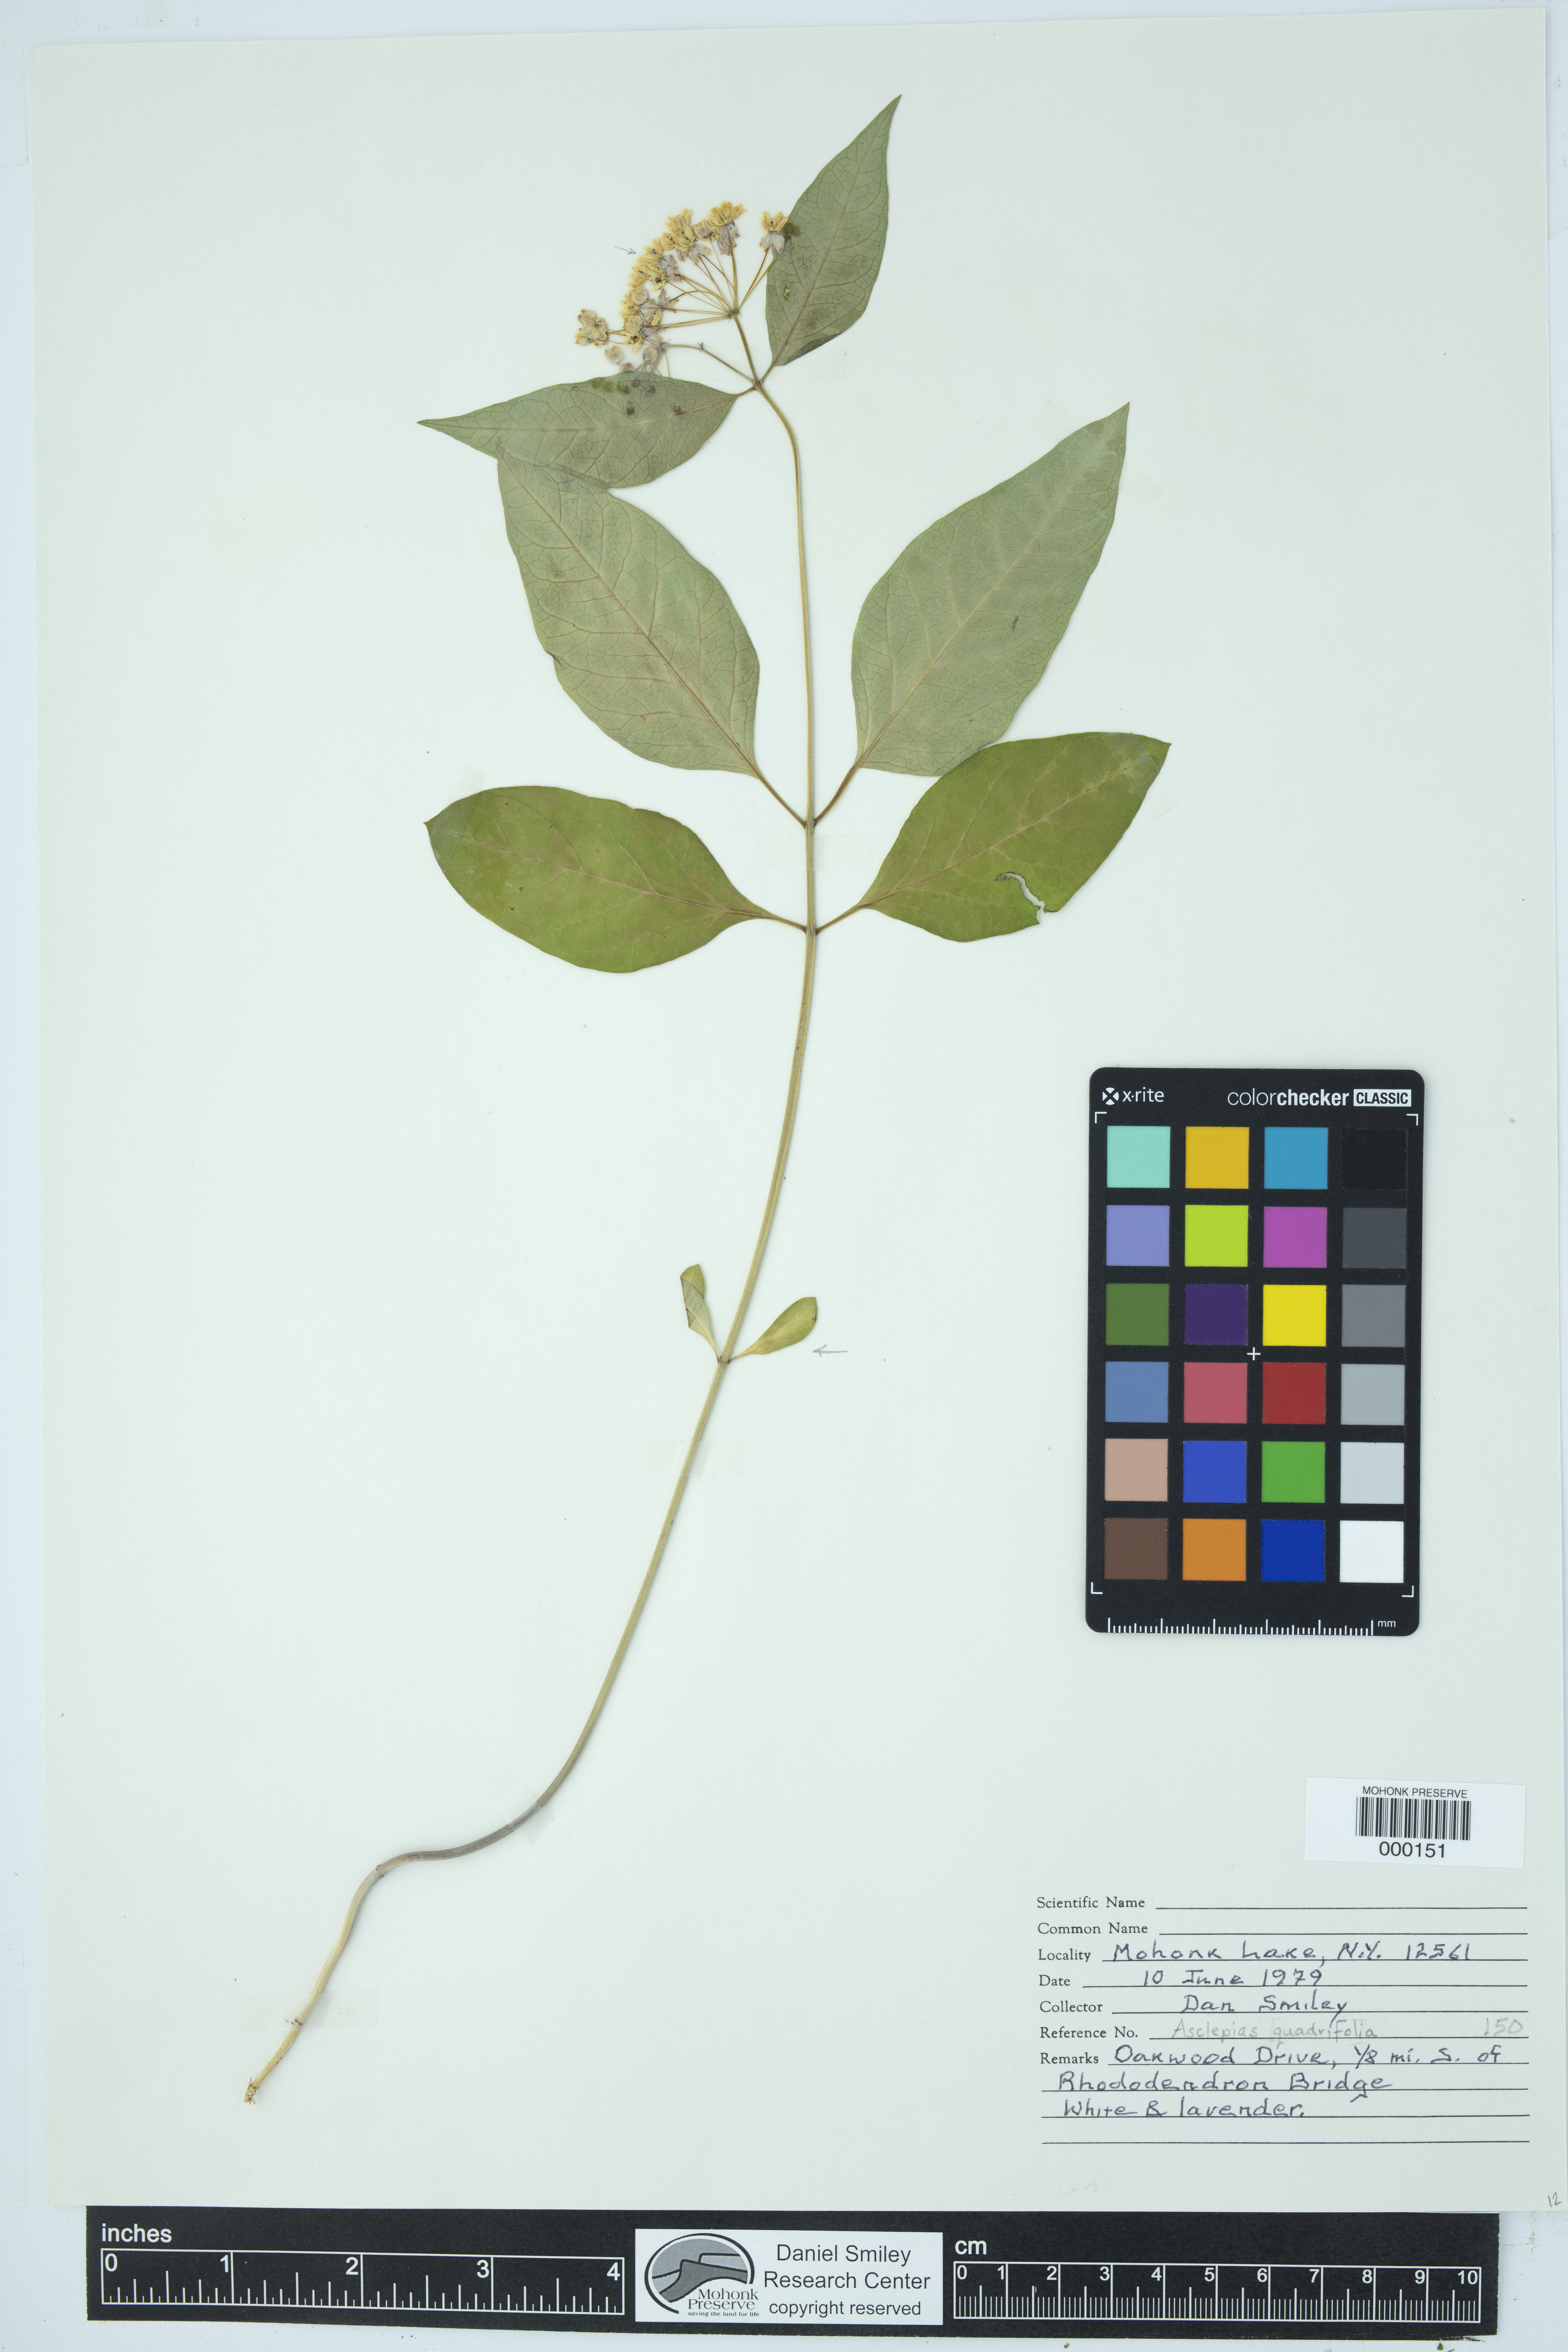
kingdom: Plantae
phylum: Tracheophyta
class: Magnoliopsida
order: Gentianales
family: Apocynaceae
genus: Asclepias
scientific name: Asclepias quadrifolia
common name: Whorled milkweed
